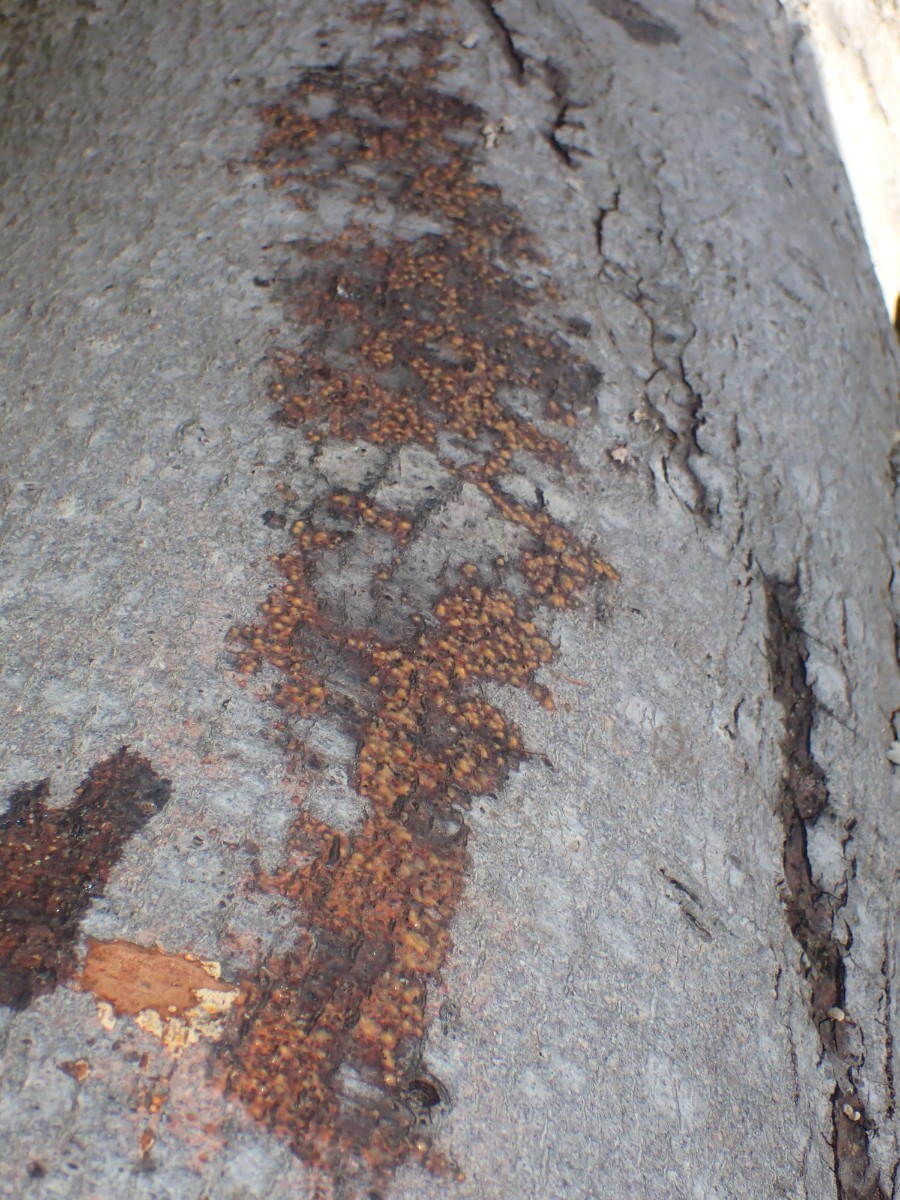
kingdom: Fungi
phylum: Ascomycota
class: Sordariomycetes
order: Xylariales
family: Diatrypaceae
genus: Eutypella
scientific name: Eutypella quaternata
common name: bøge-korsprik
